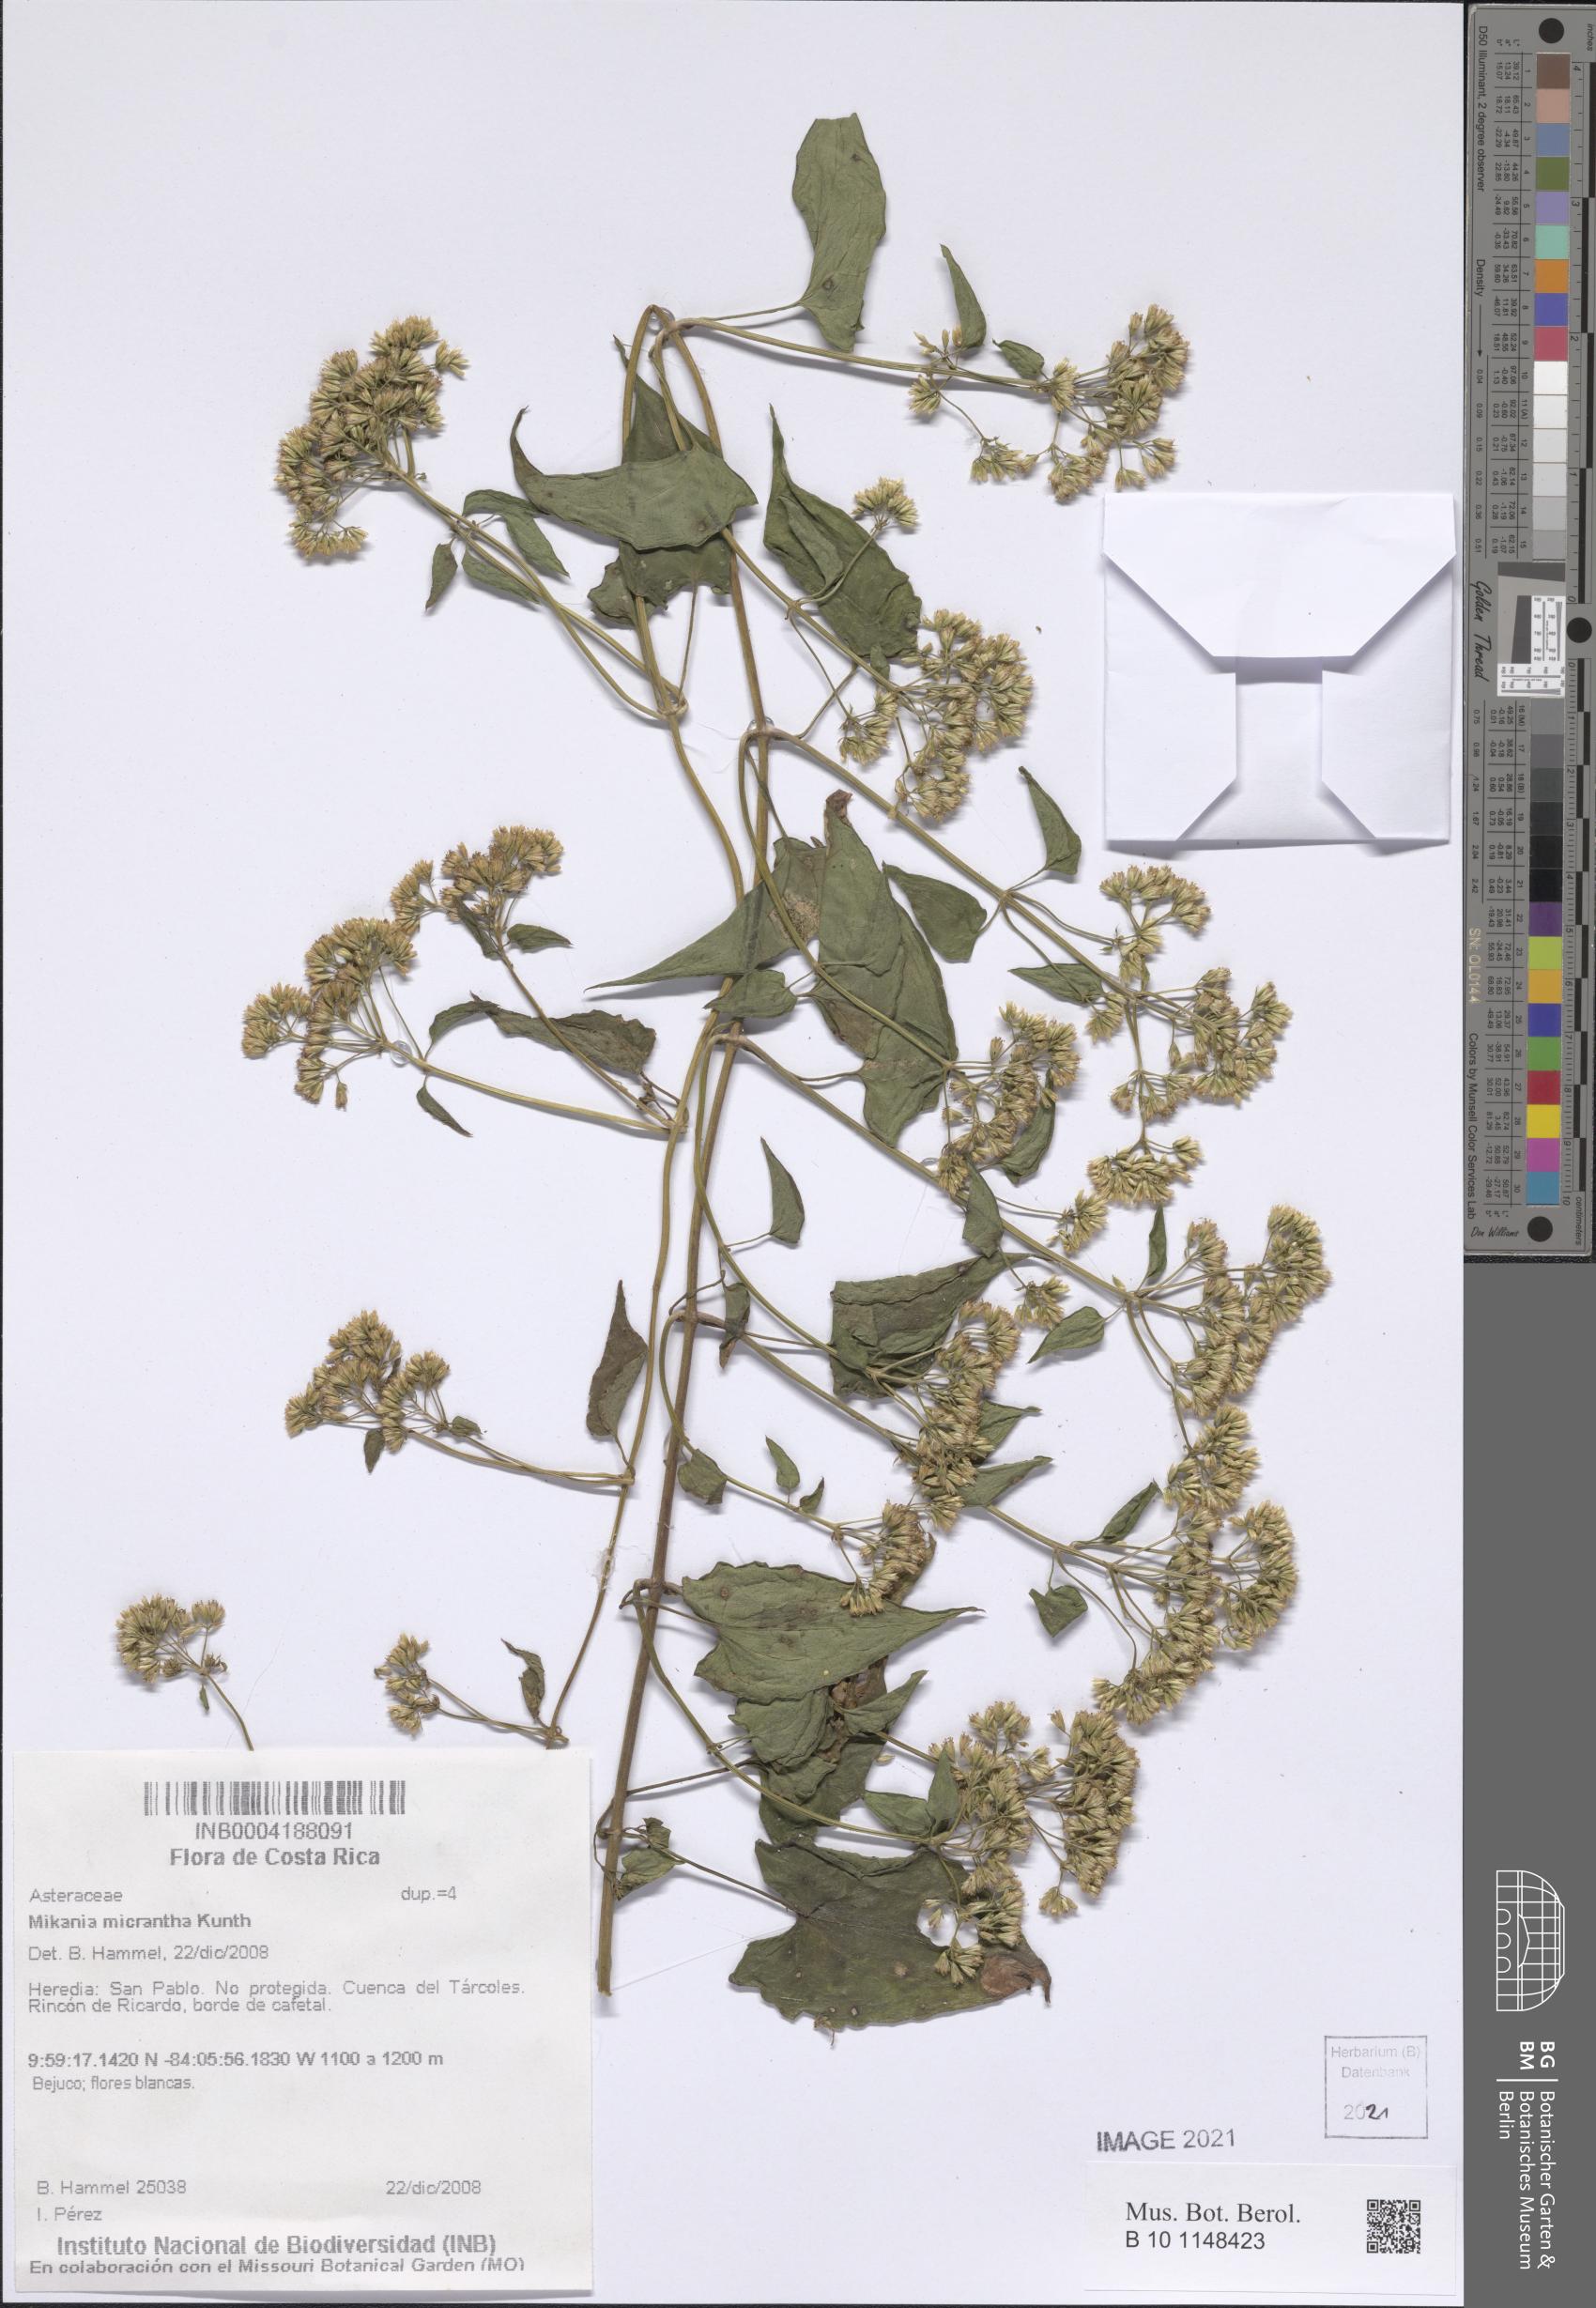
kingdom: Plantae
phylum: Tracheophyta
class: Magnoliopsida
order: Asterales
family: Asteraceae
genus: Mikania
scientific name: Mikania micrantha
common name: Mile-a-minute
